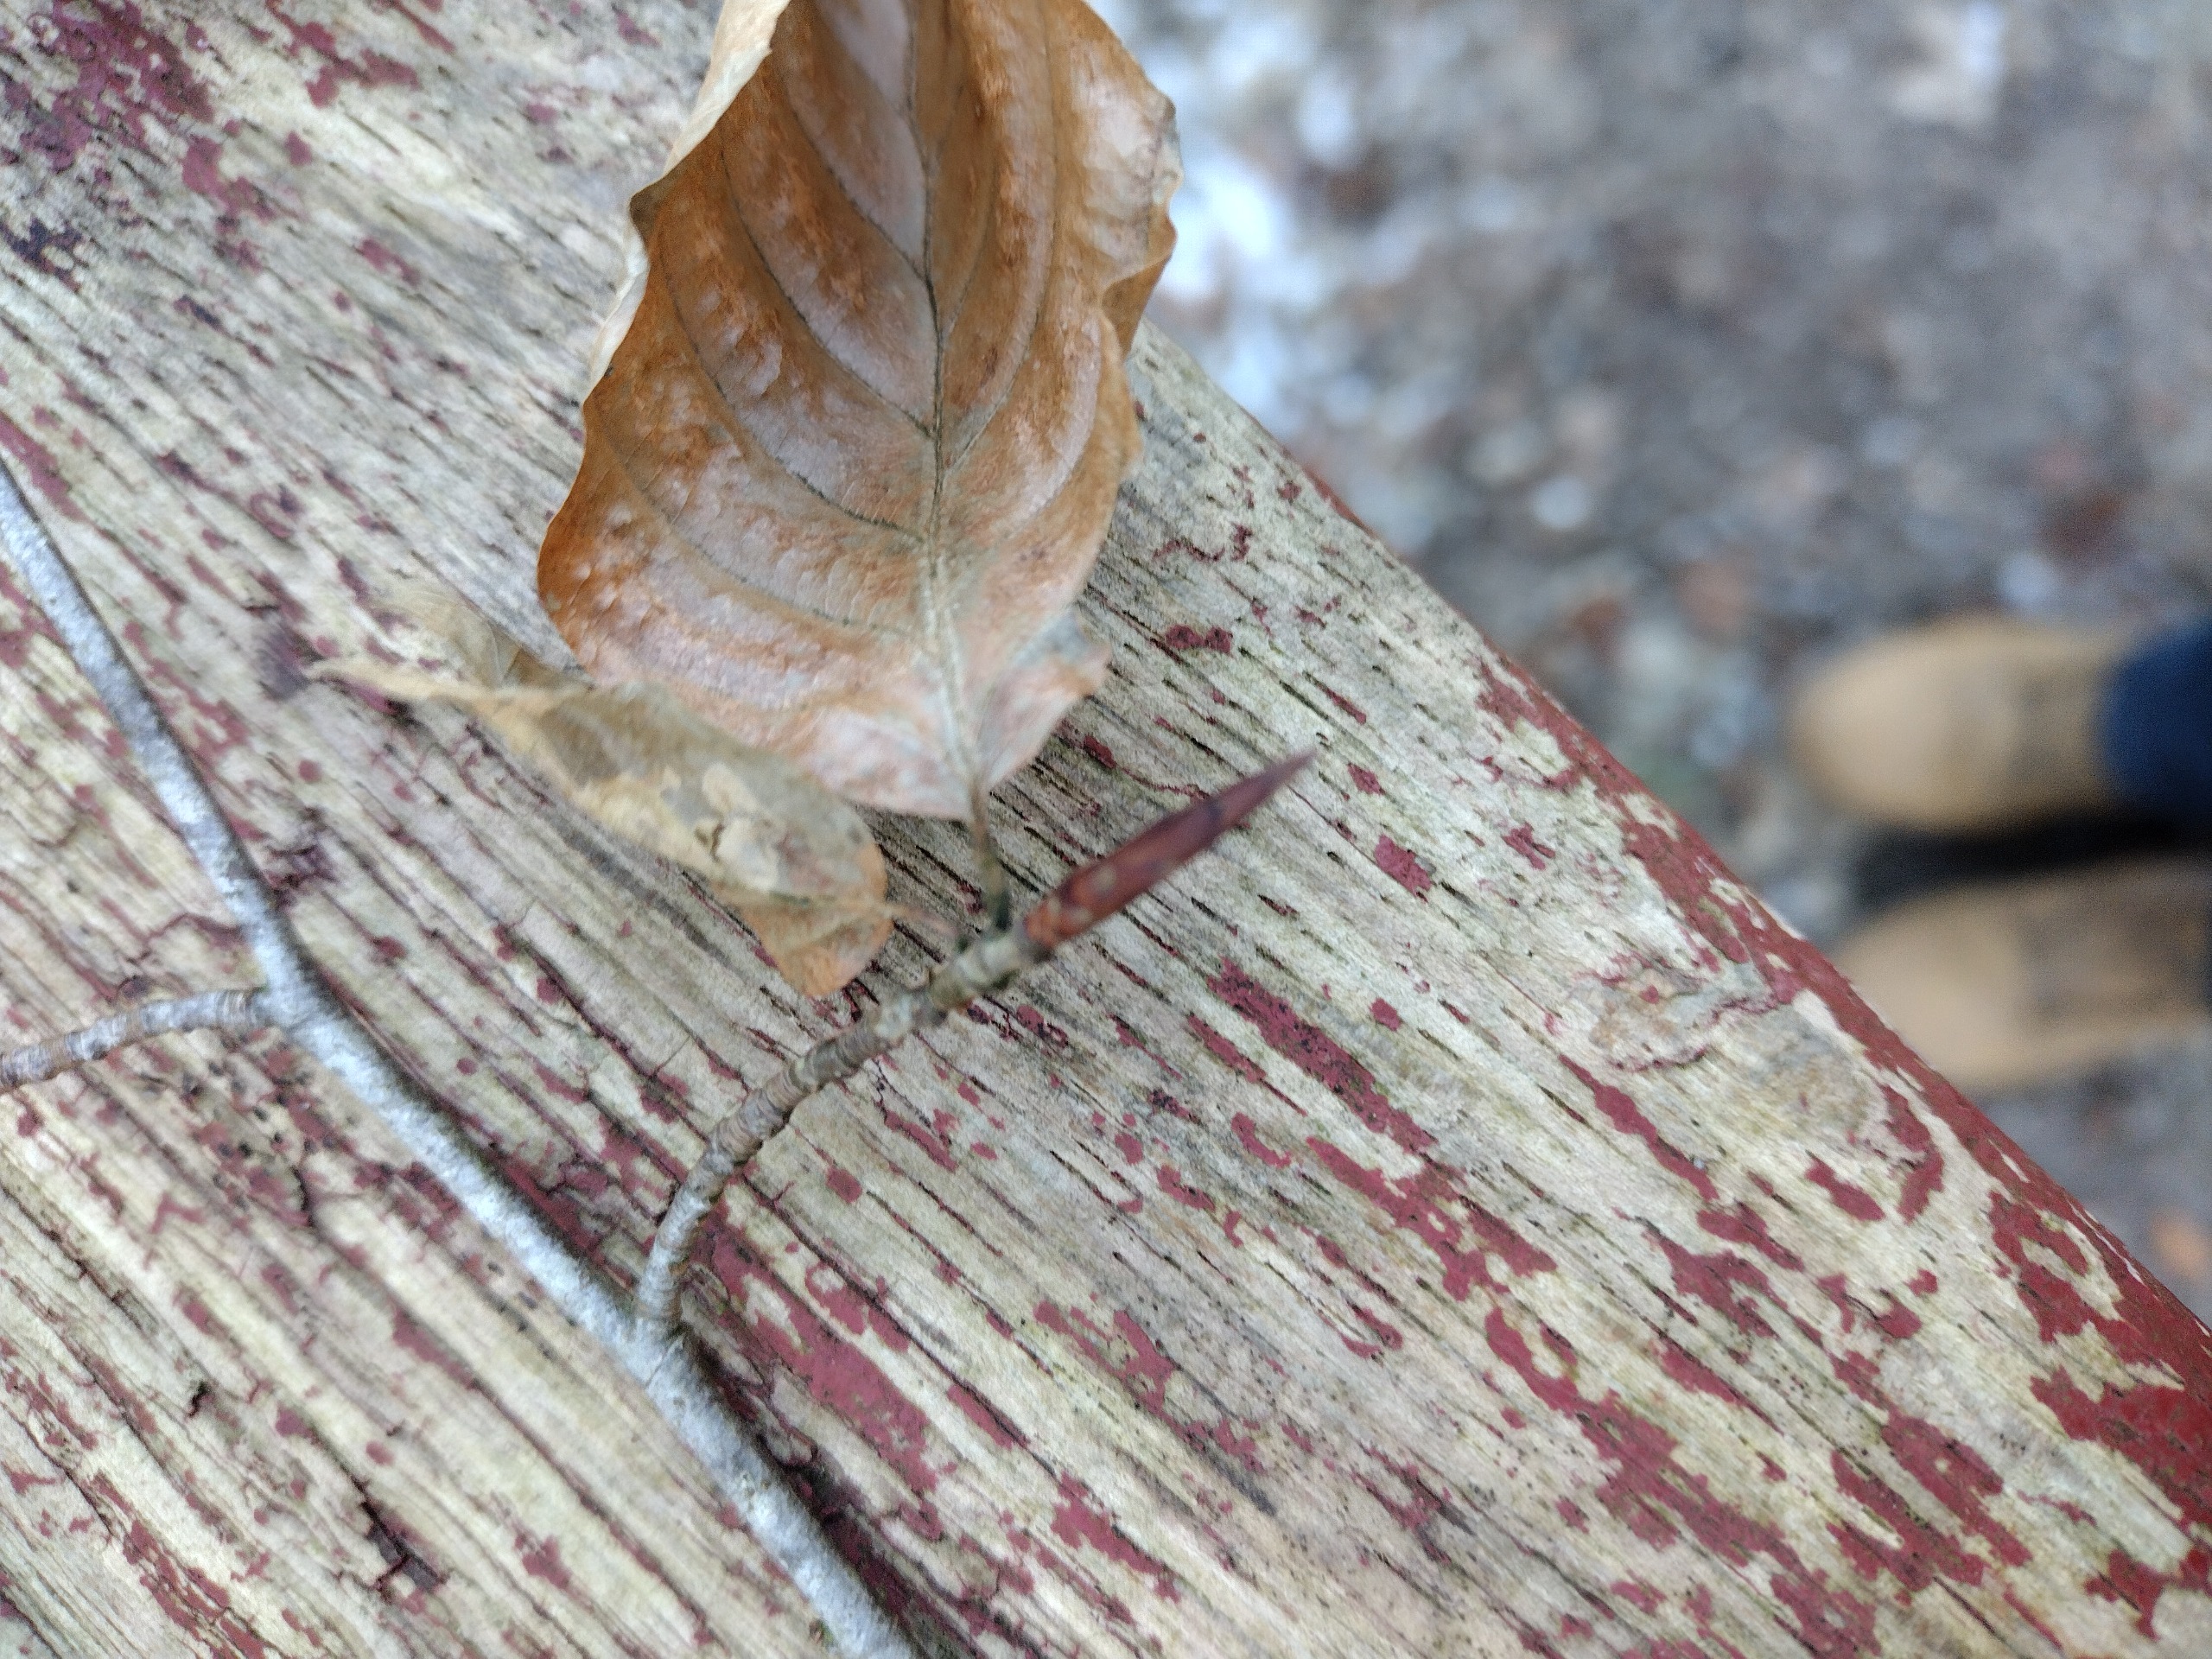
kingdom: Plantae
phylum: Tracheophyta
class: Magnoliopsida
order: Fagales
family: Fagaceae
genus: Fagus
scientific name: Fagus sylvatica
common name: Bøg
